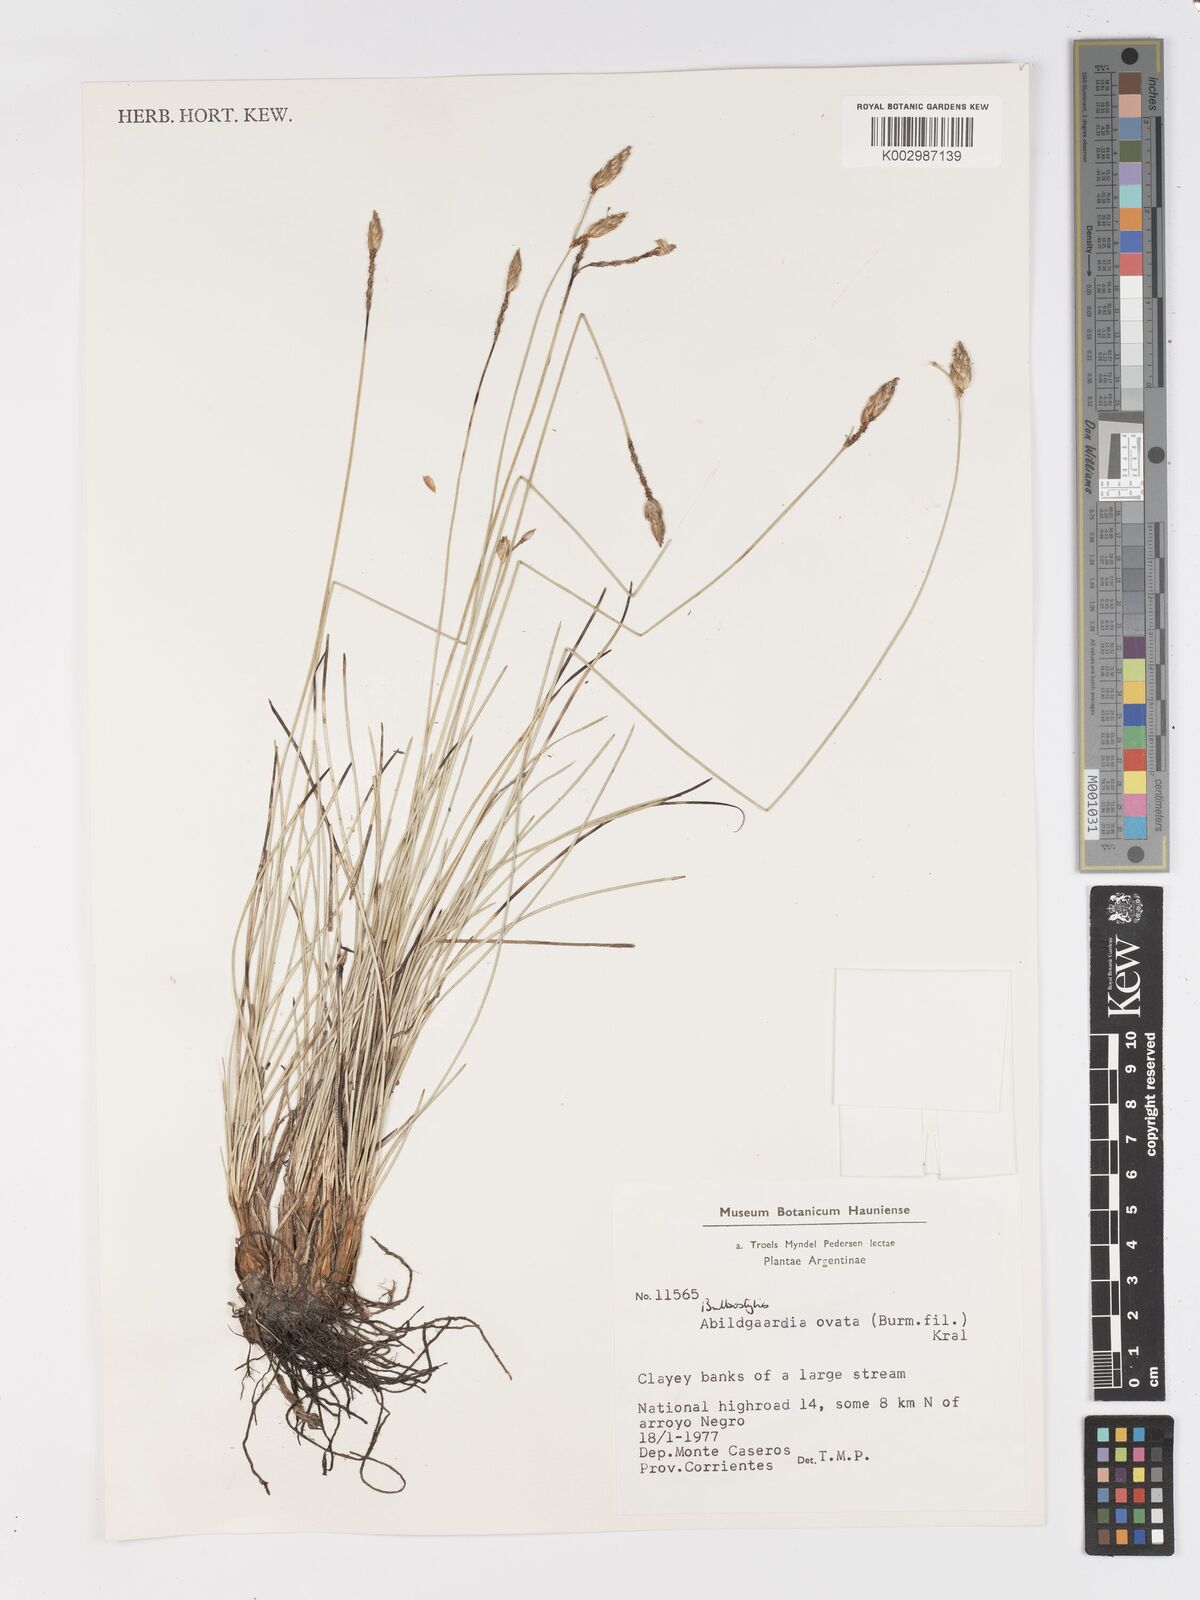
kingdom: Plantae
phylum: Tracheophyta
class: Liliopsida
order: Poales
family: Cyperaceae
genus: Abildgaardia
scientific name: Abildgaardia ovata
